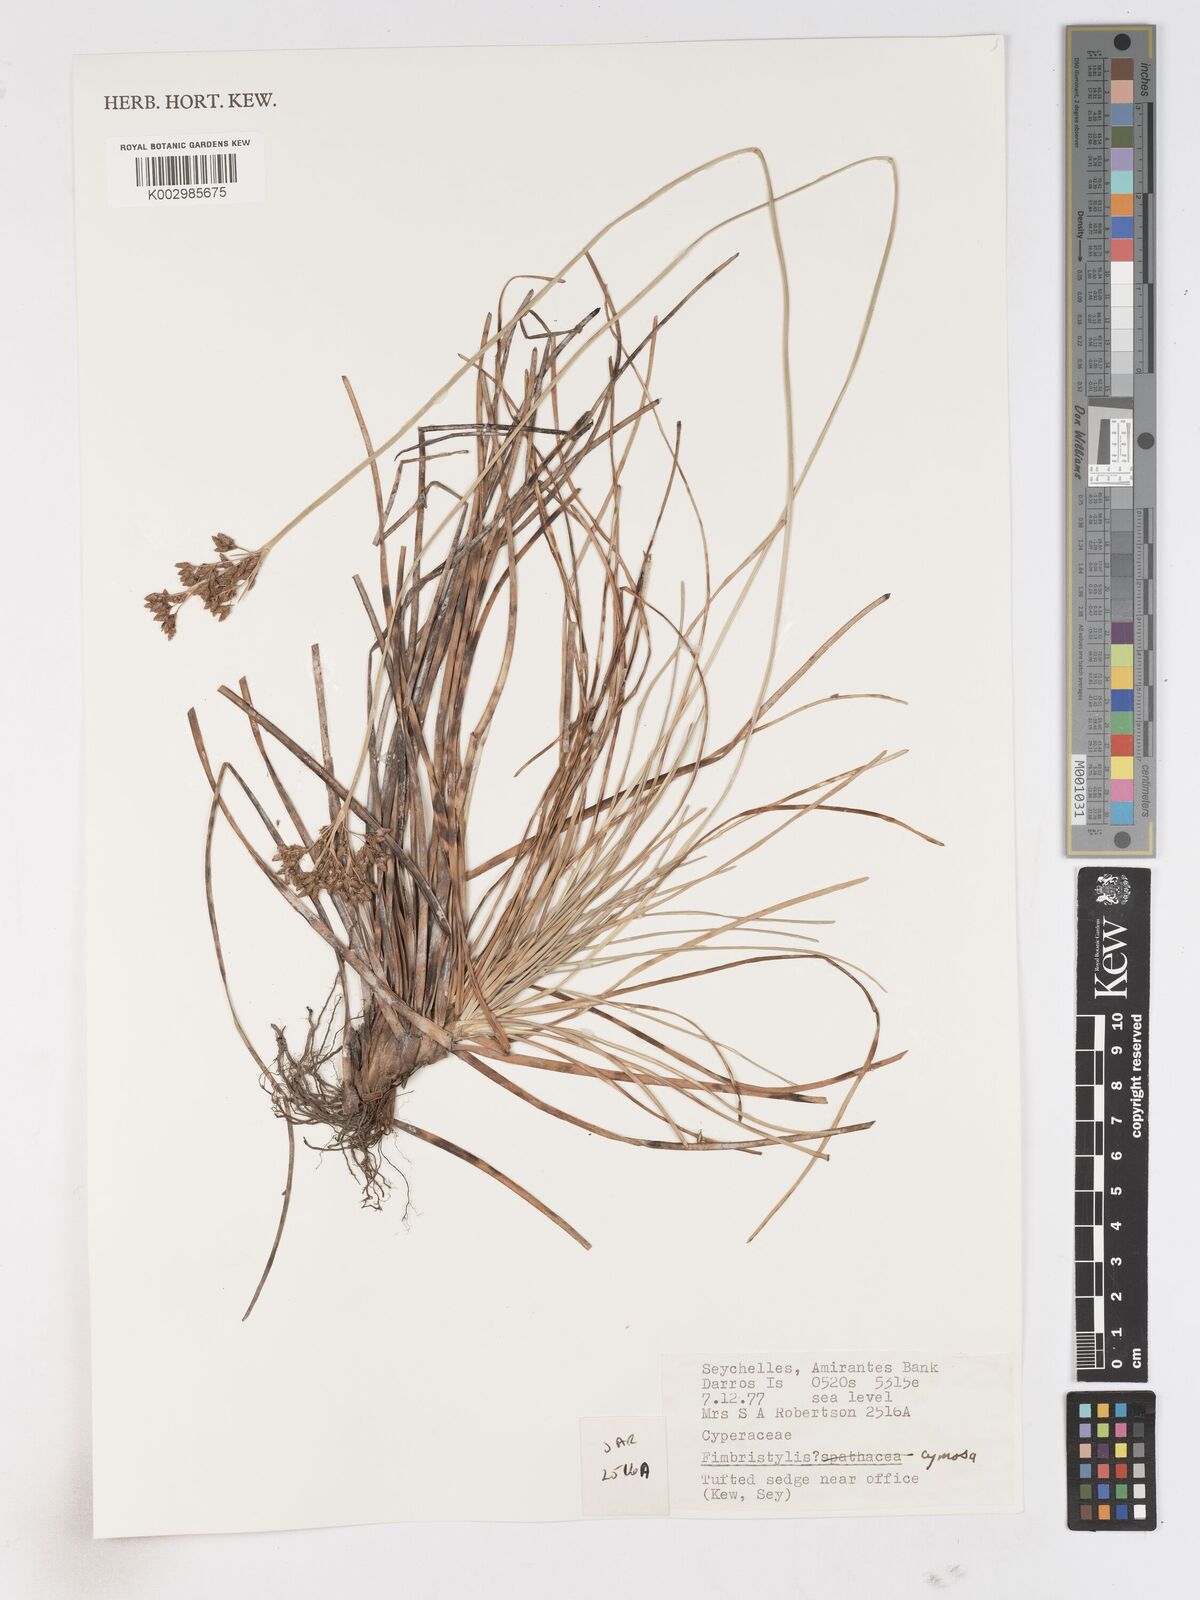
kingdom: Plantae
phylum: Tracheophyta
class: Liliopsida
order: Poales
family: Cyperaceae
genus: Fimbristylis
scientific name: Fimbristylis cymosa
